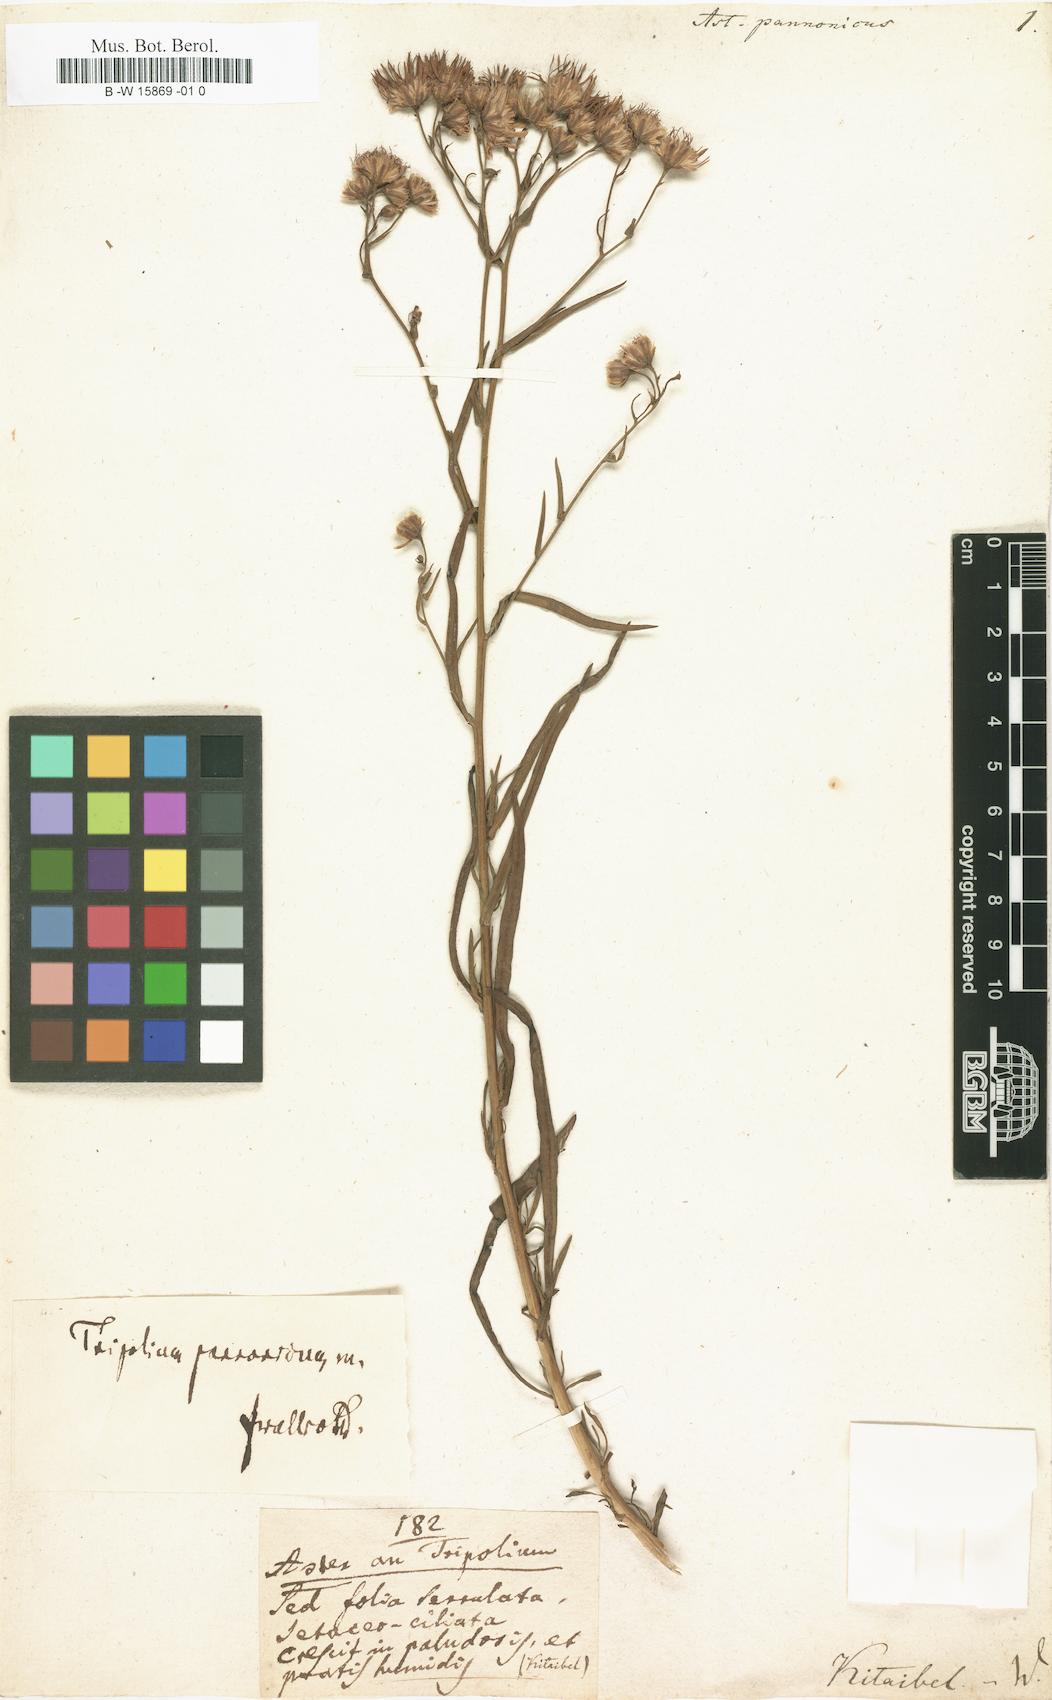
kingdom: Plantae
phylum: Tracheophyta
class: Magnoliopsida
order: Asterales
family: Asteraceae
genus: Tripolium
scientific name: Tripolium pannonicum
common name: Sea aster
